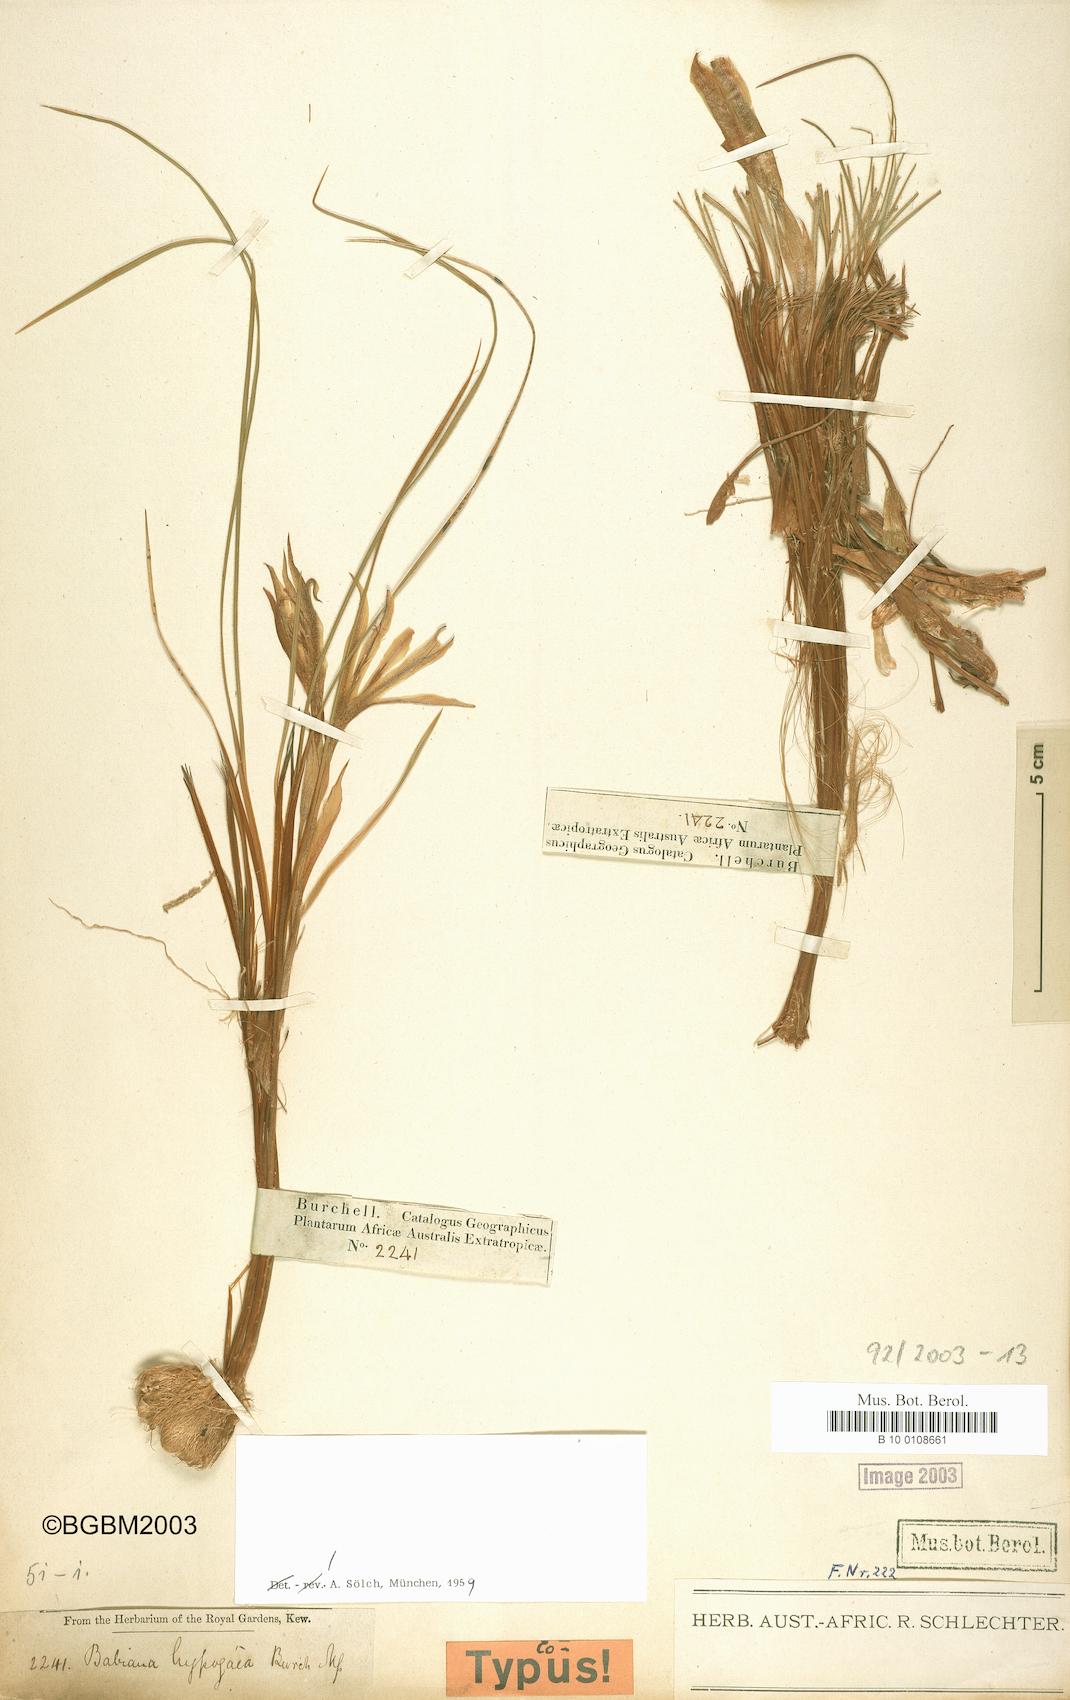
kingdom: Plantae
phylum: Tracheophyta
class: Liliopsida
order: Asparagales
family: Iridaceae
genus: Babiana
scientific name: Babiana bainesii
